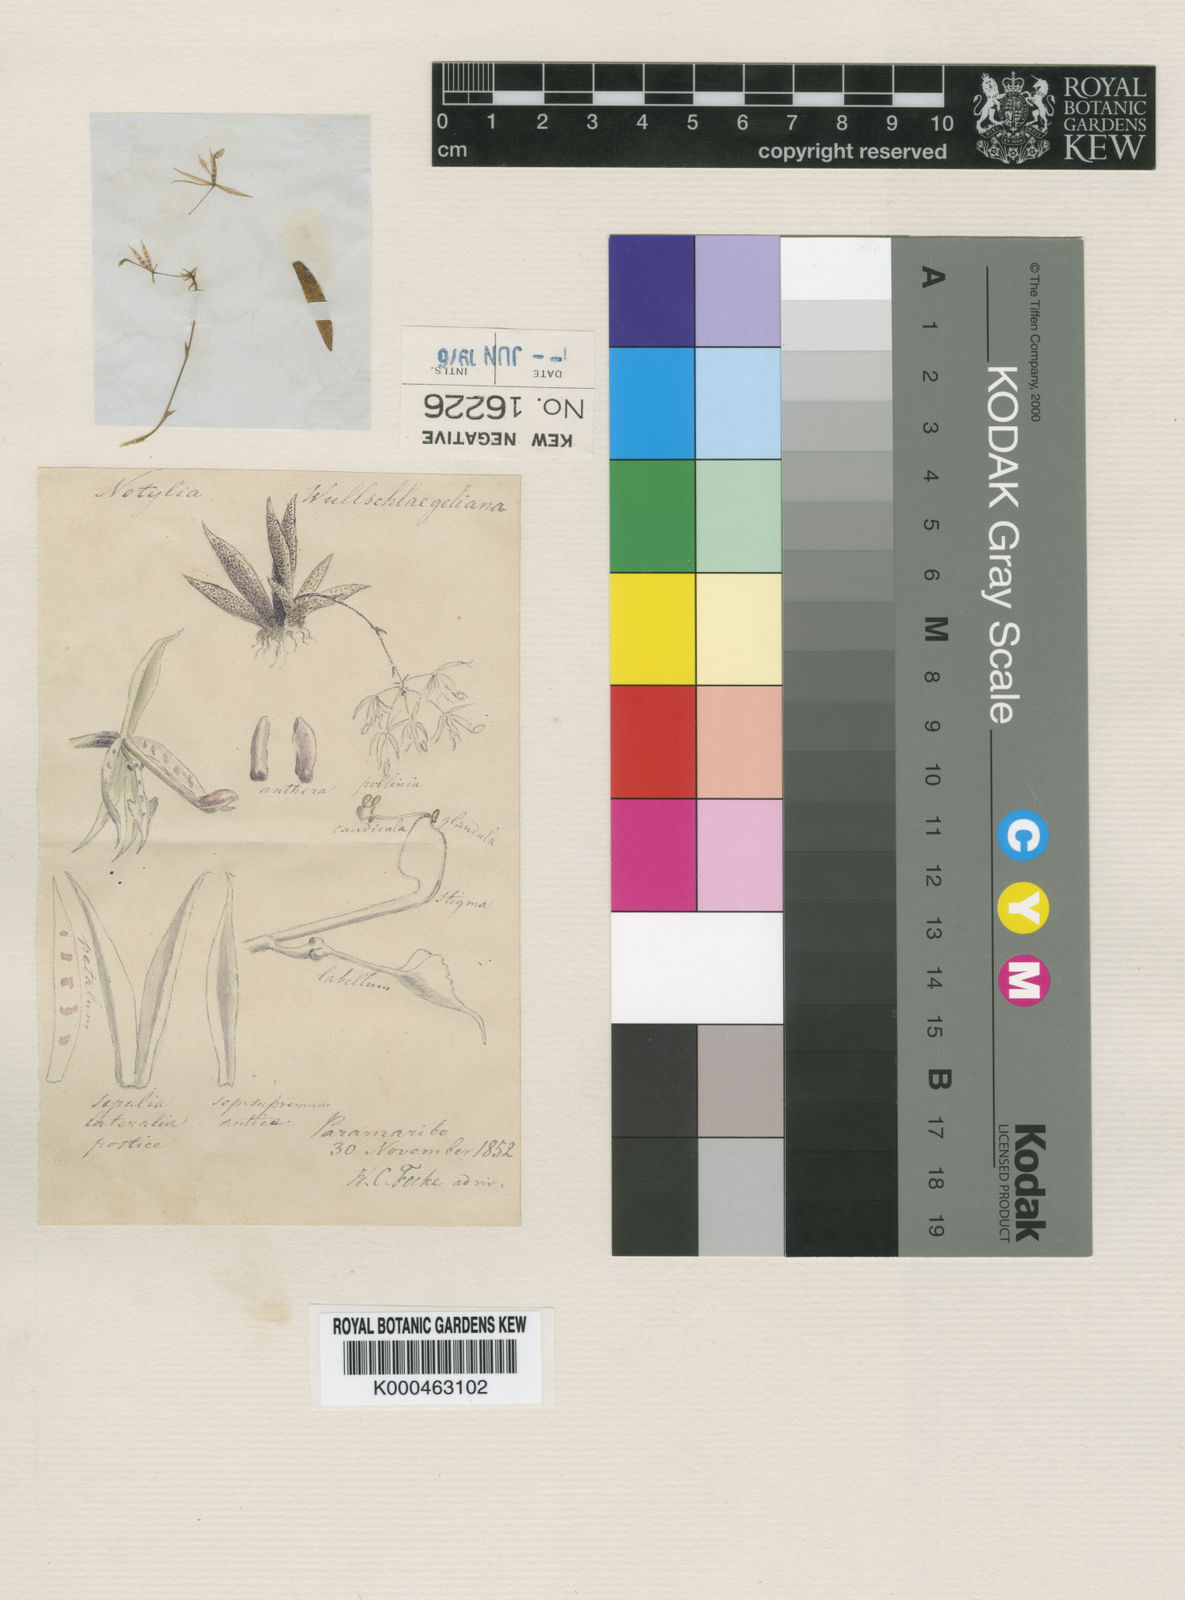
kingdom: Plantae
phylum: Tracheophyta
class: Liliopsida
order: Asparagales
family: Orchidaceae
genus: Macroclinium
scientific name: Macroclinium wullschlaegelianum
